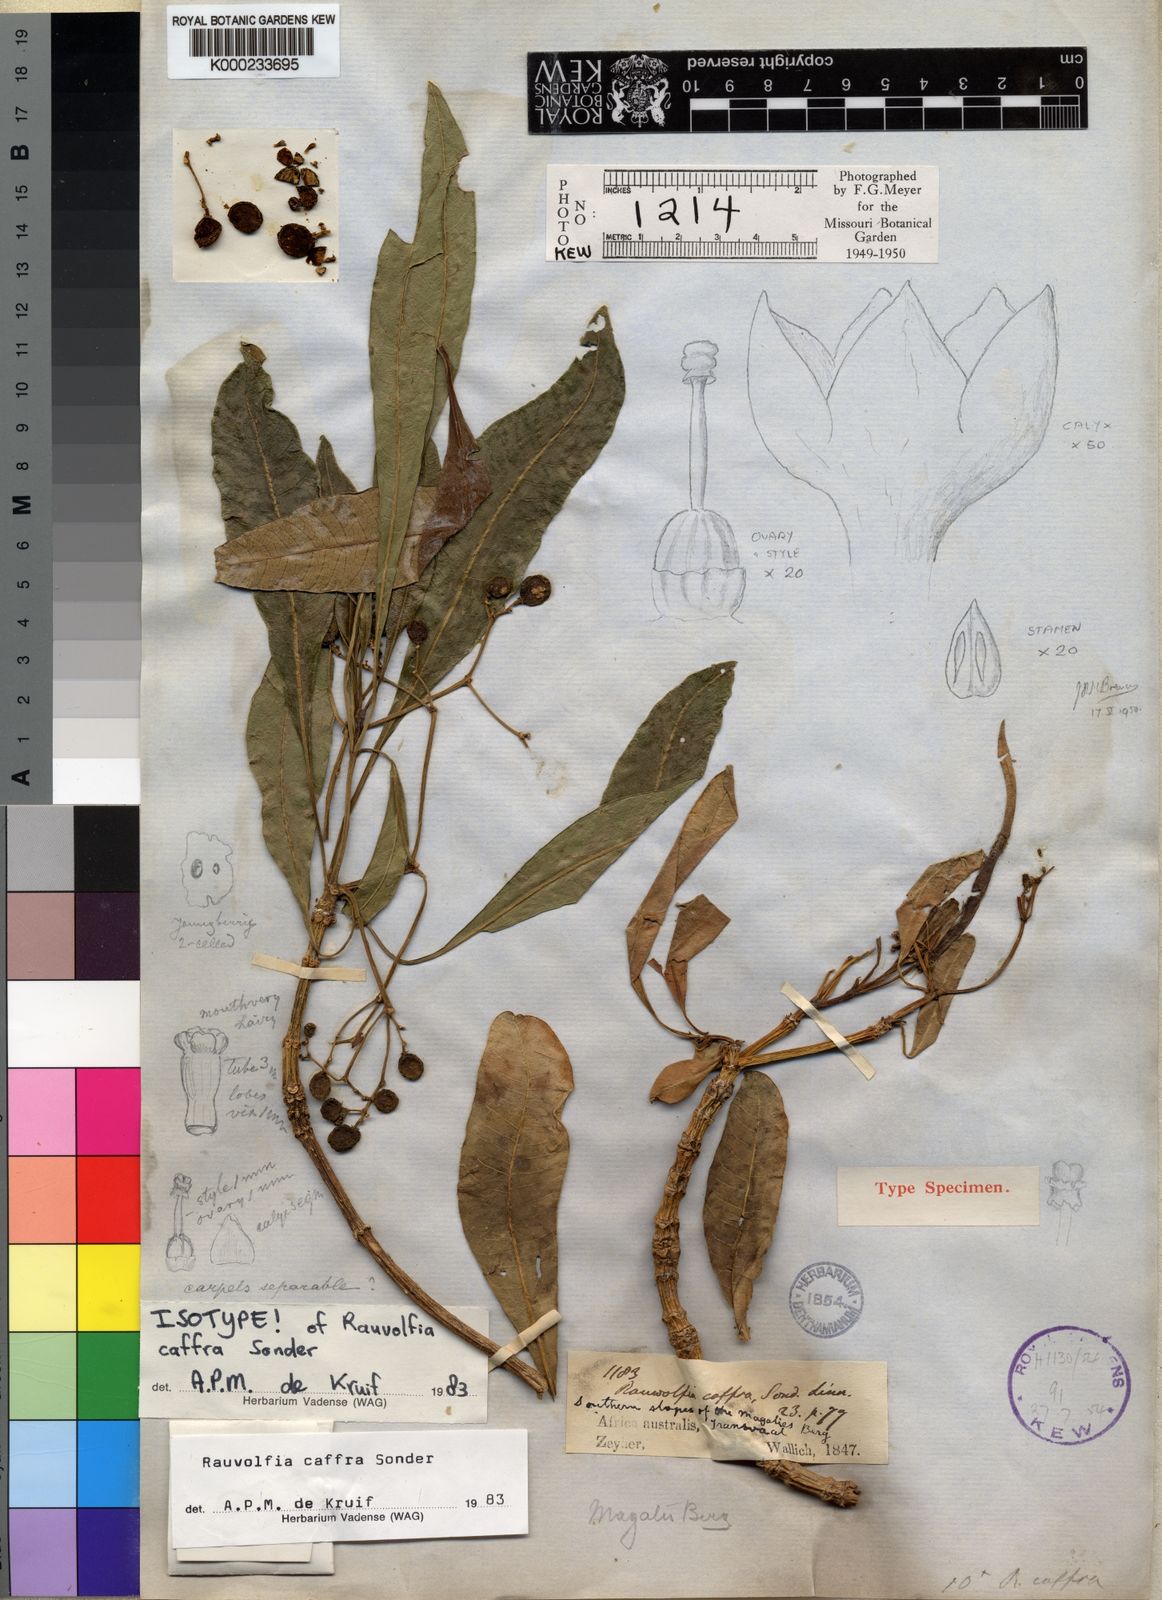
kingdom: Plantae
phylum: Tracheophyta
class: Magnoliopsida
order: Gentianales
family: Apocynaceae
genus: Rauvolfia
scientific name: Rauvolfia caffra
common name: Quininetree
